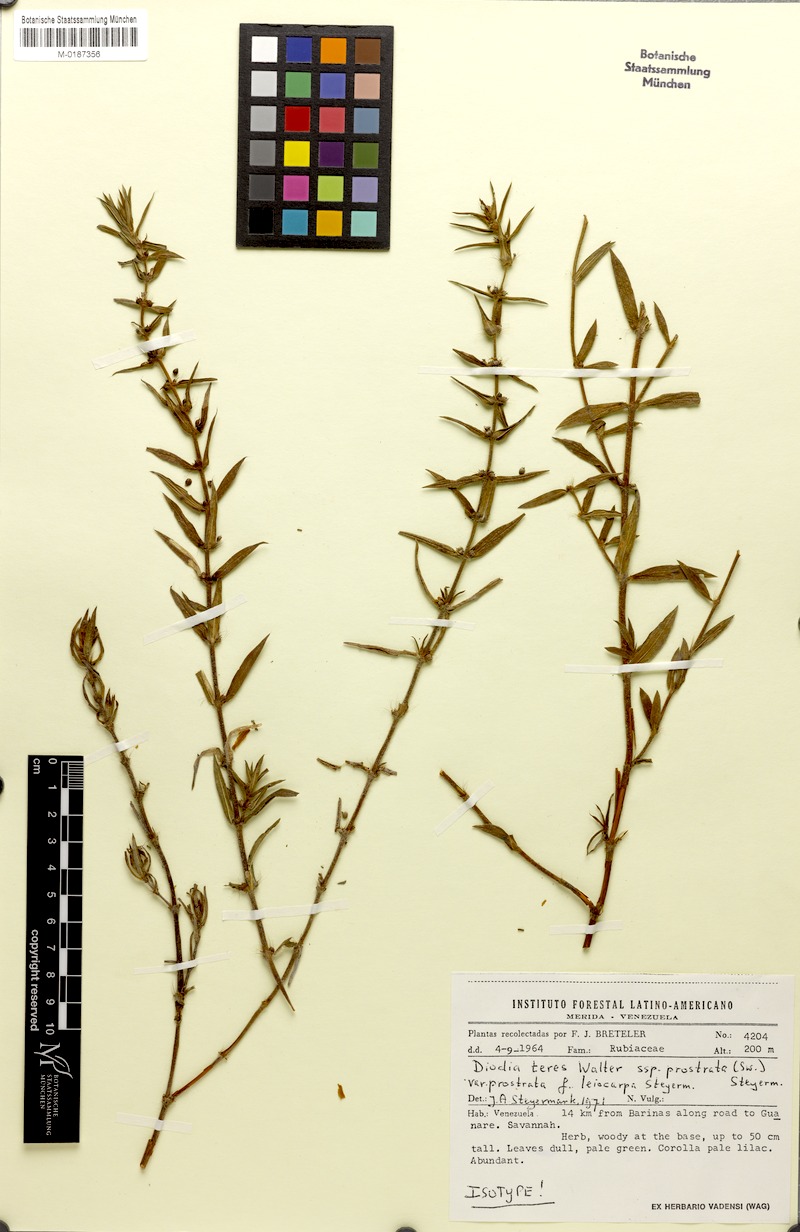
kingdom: Plantae
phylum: Tracheophyta
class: Magnoliopsida
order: Gentianales
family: Rubiaceae
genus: Hexasepalum
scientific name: Hexasepalum teres
